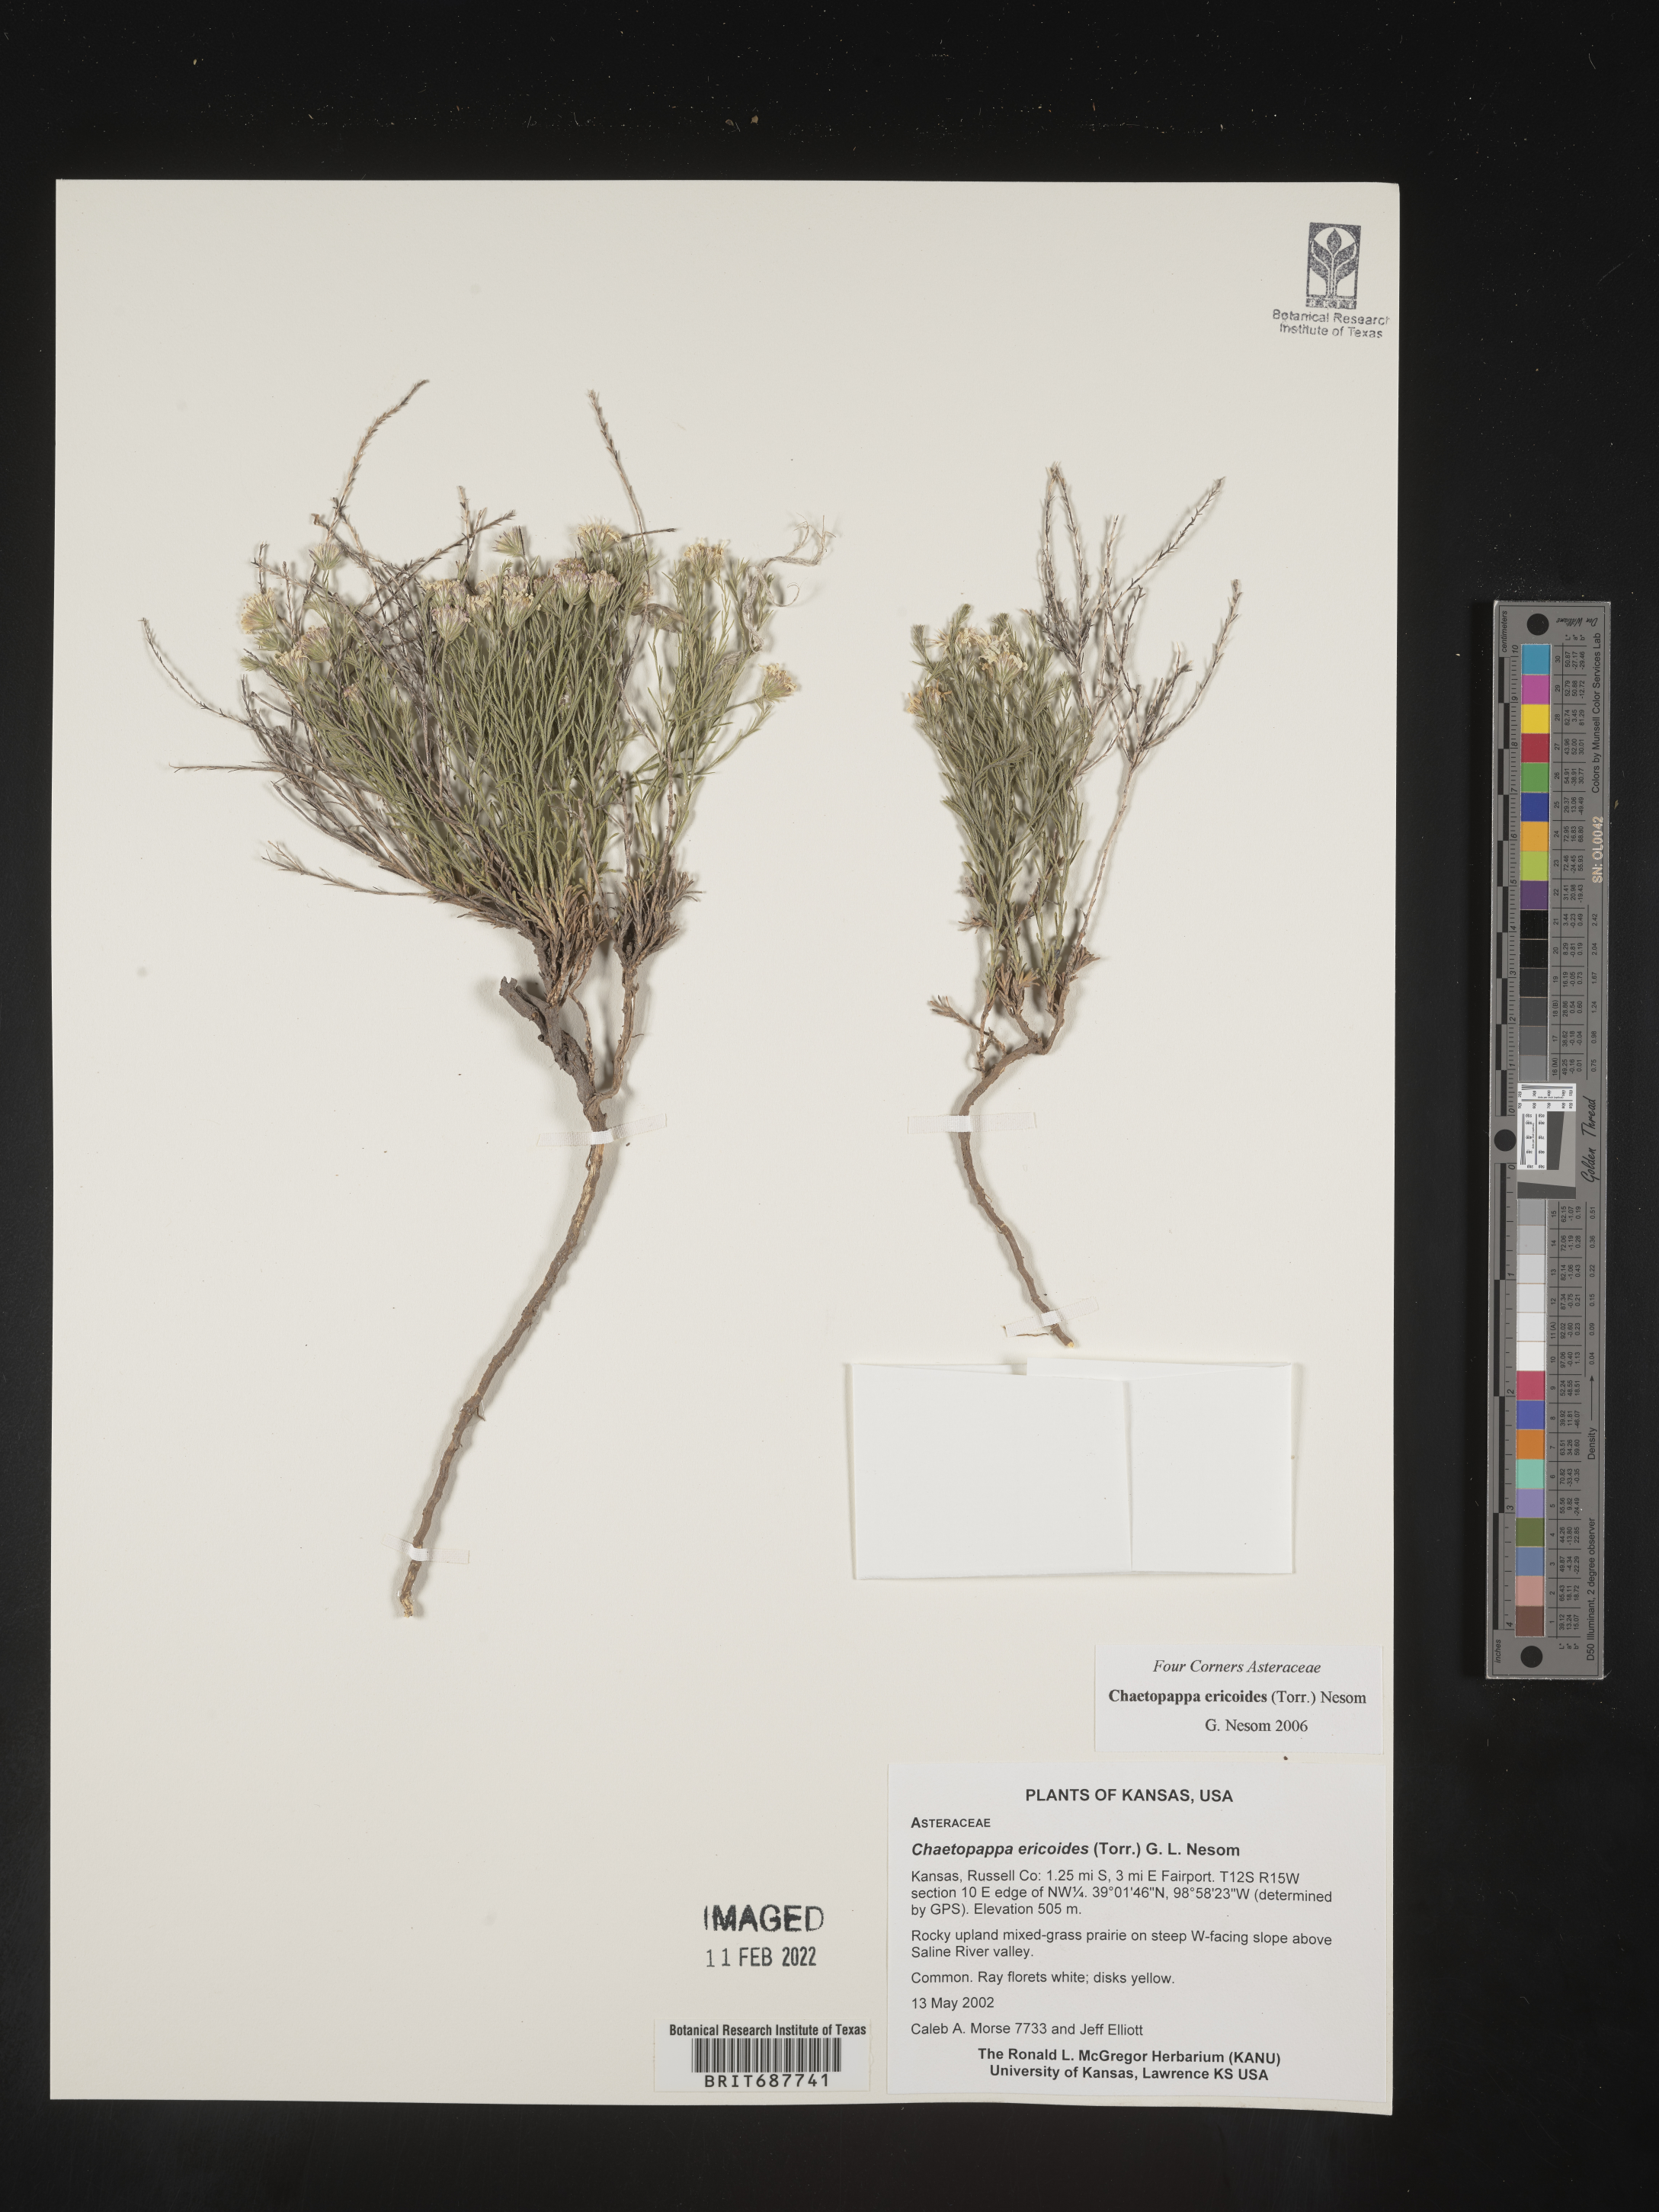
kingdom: Plantae
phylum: Tracheophyta
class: Magnoliopsida
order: Asterales
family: Asteraceae
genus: Chaetopappa
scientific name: Chaetopappa ericoides
